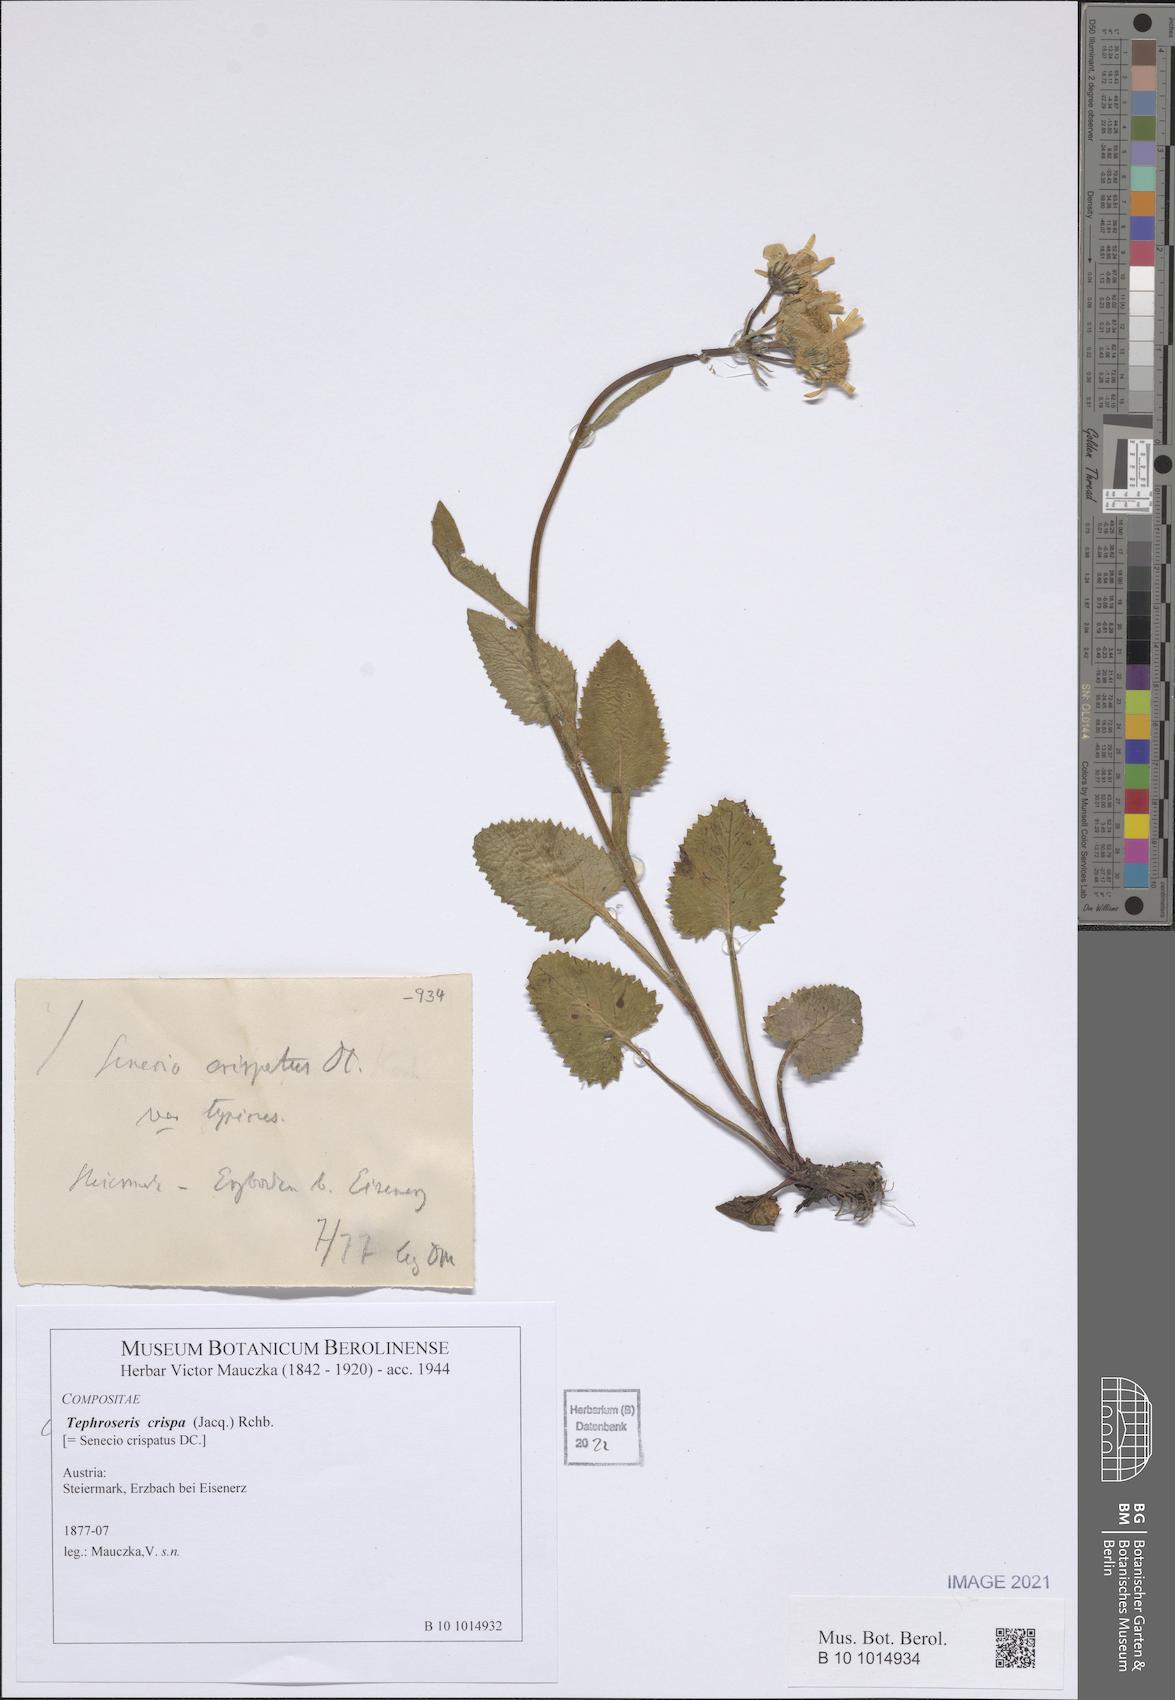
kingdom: Plantae
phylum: Tracheophyta
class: Magnoliopsida
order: Asterales
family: Asteraceae
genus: Tephroseris
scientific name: Tephroseris crispa
